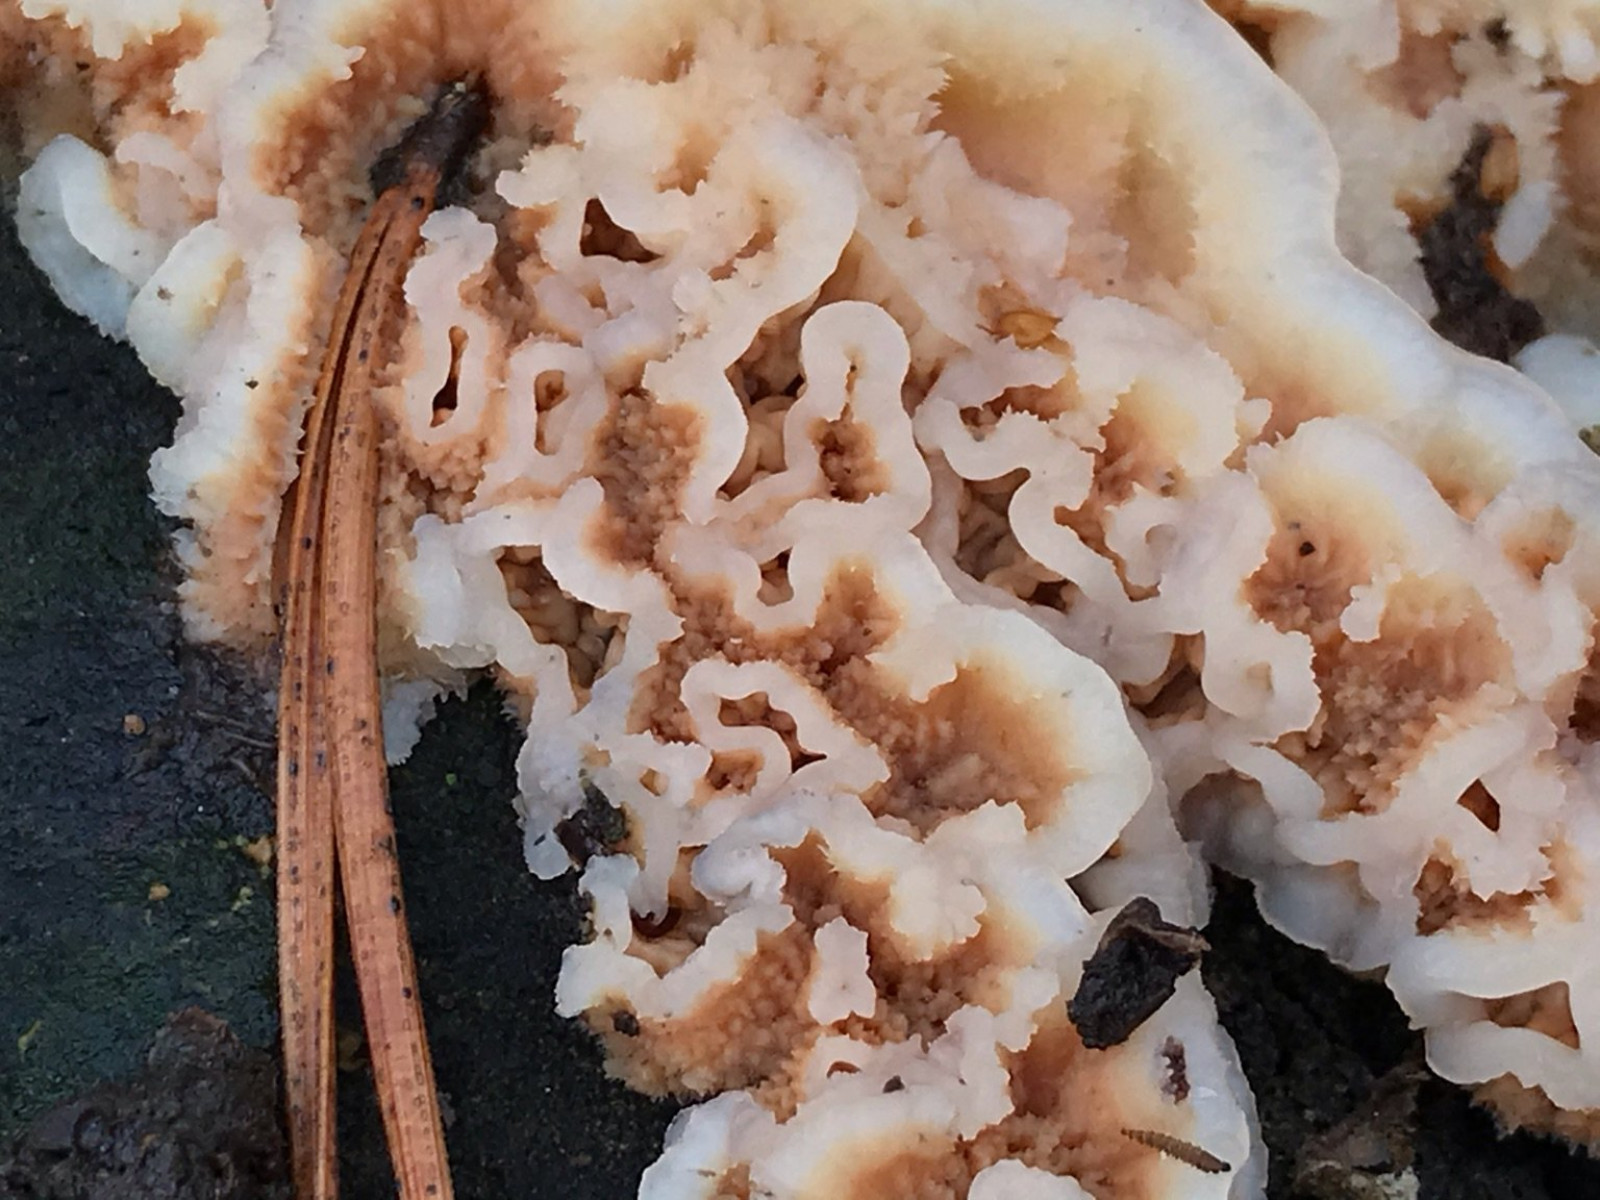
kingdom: Fungi
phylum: Basidiomycota
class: Agaricomycetes
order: Polyporales
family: Meruliaceae
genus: Phlebia
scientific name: Phlebia tremellosa
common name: bævrende åresvamp
